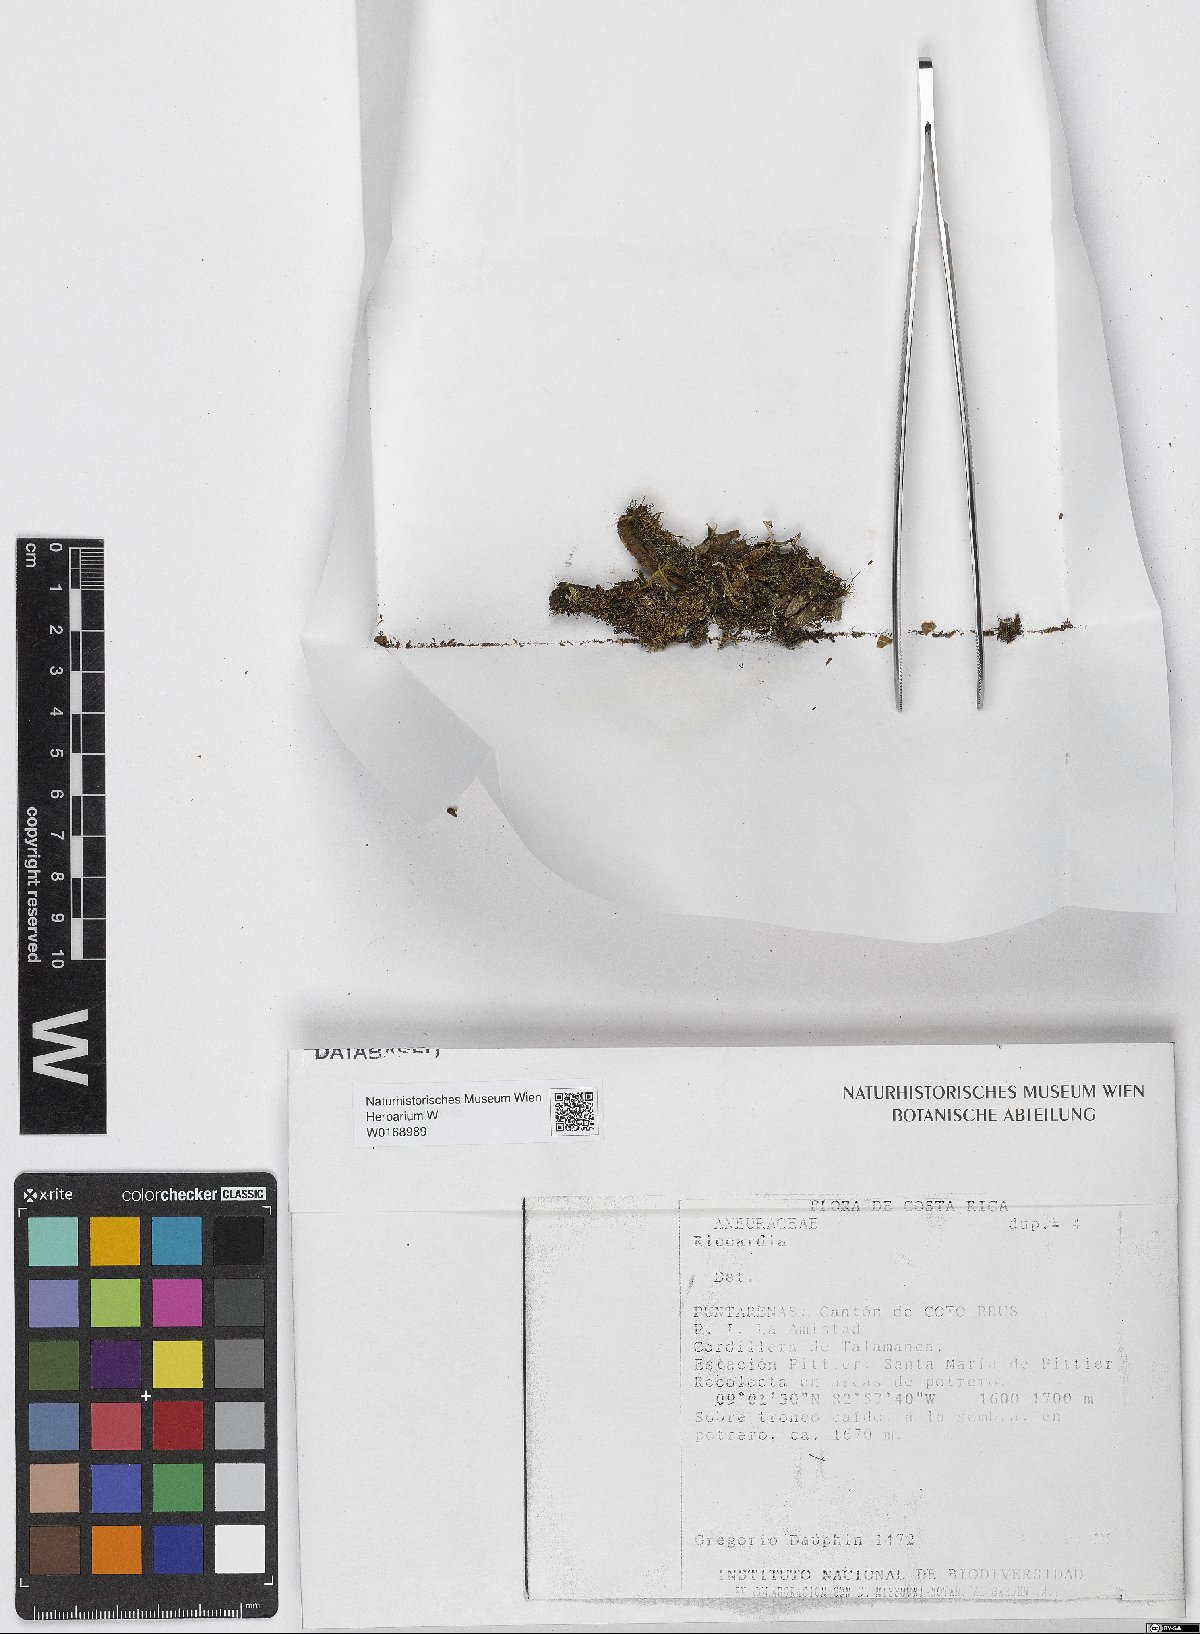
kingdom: Plantae
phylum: Marchantiophyta
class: Jungermanniopsida
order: Metzgeriales
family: Aneuraceae
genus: Riccardia
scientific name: Riccardia
